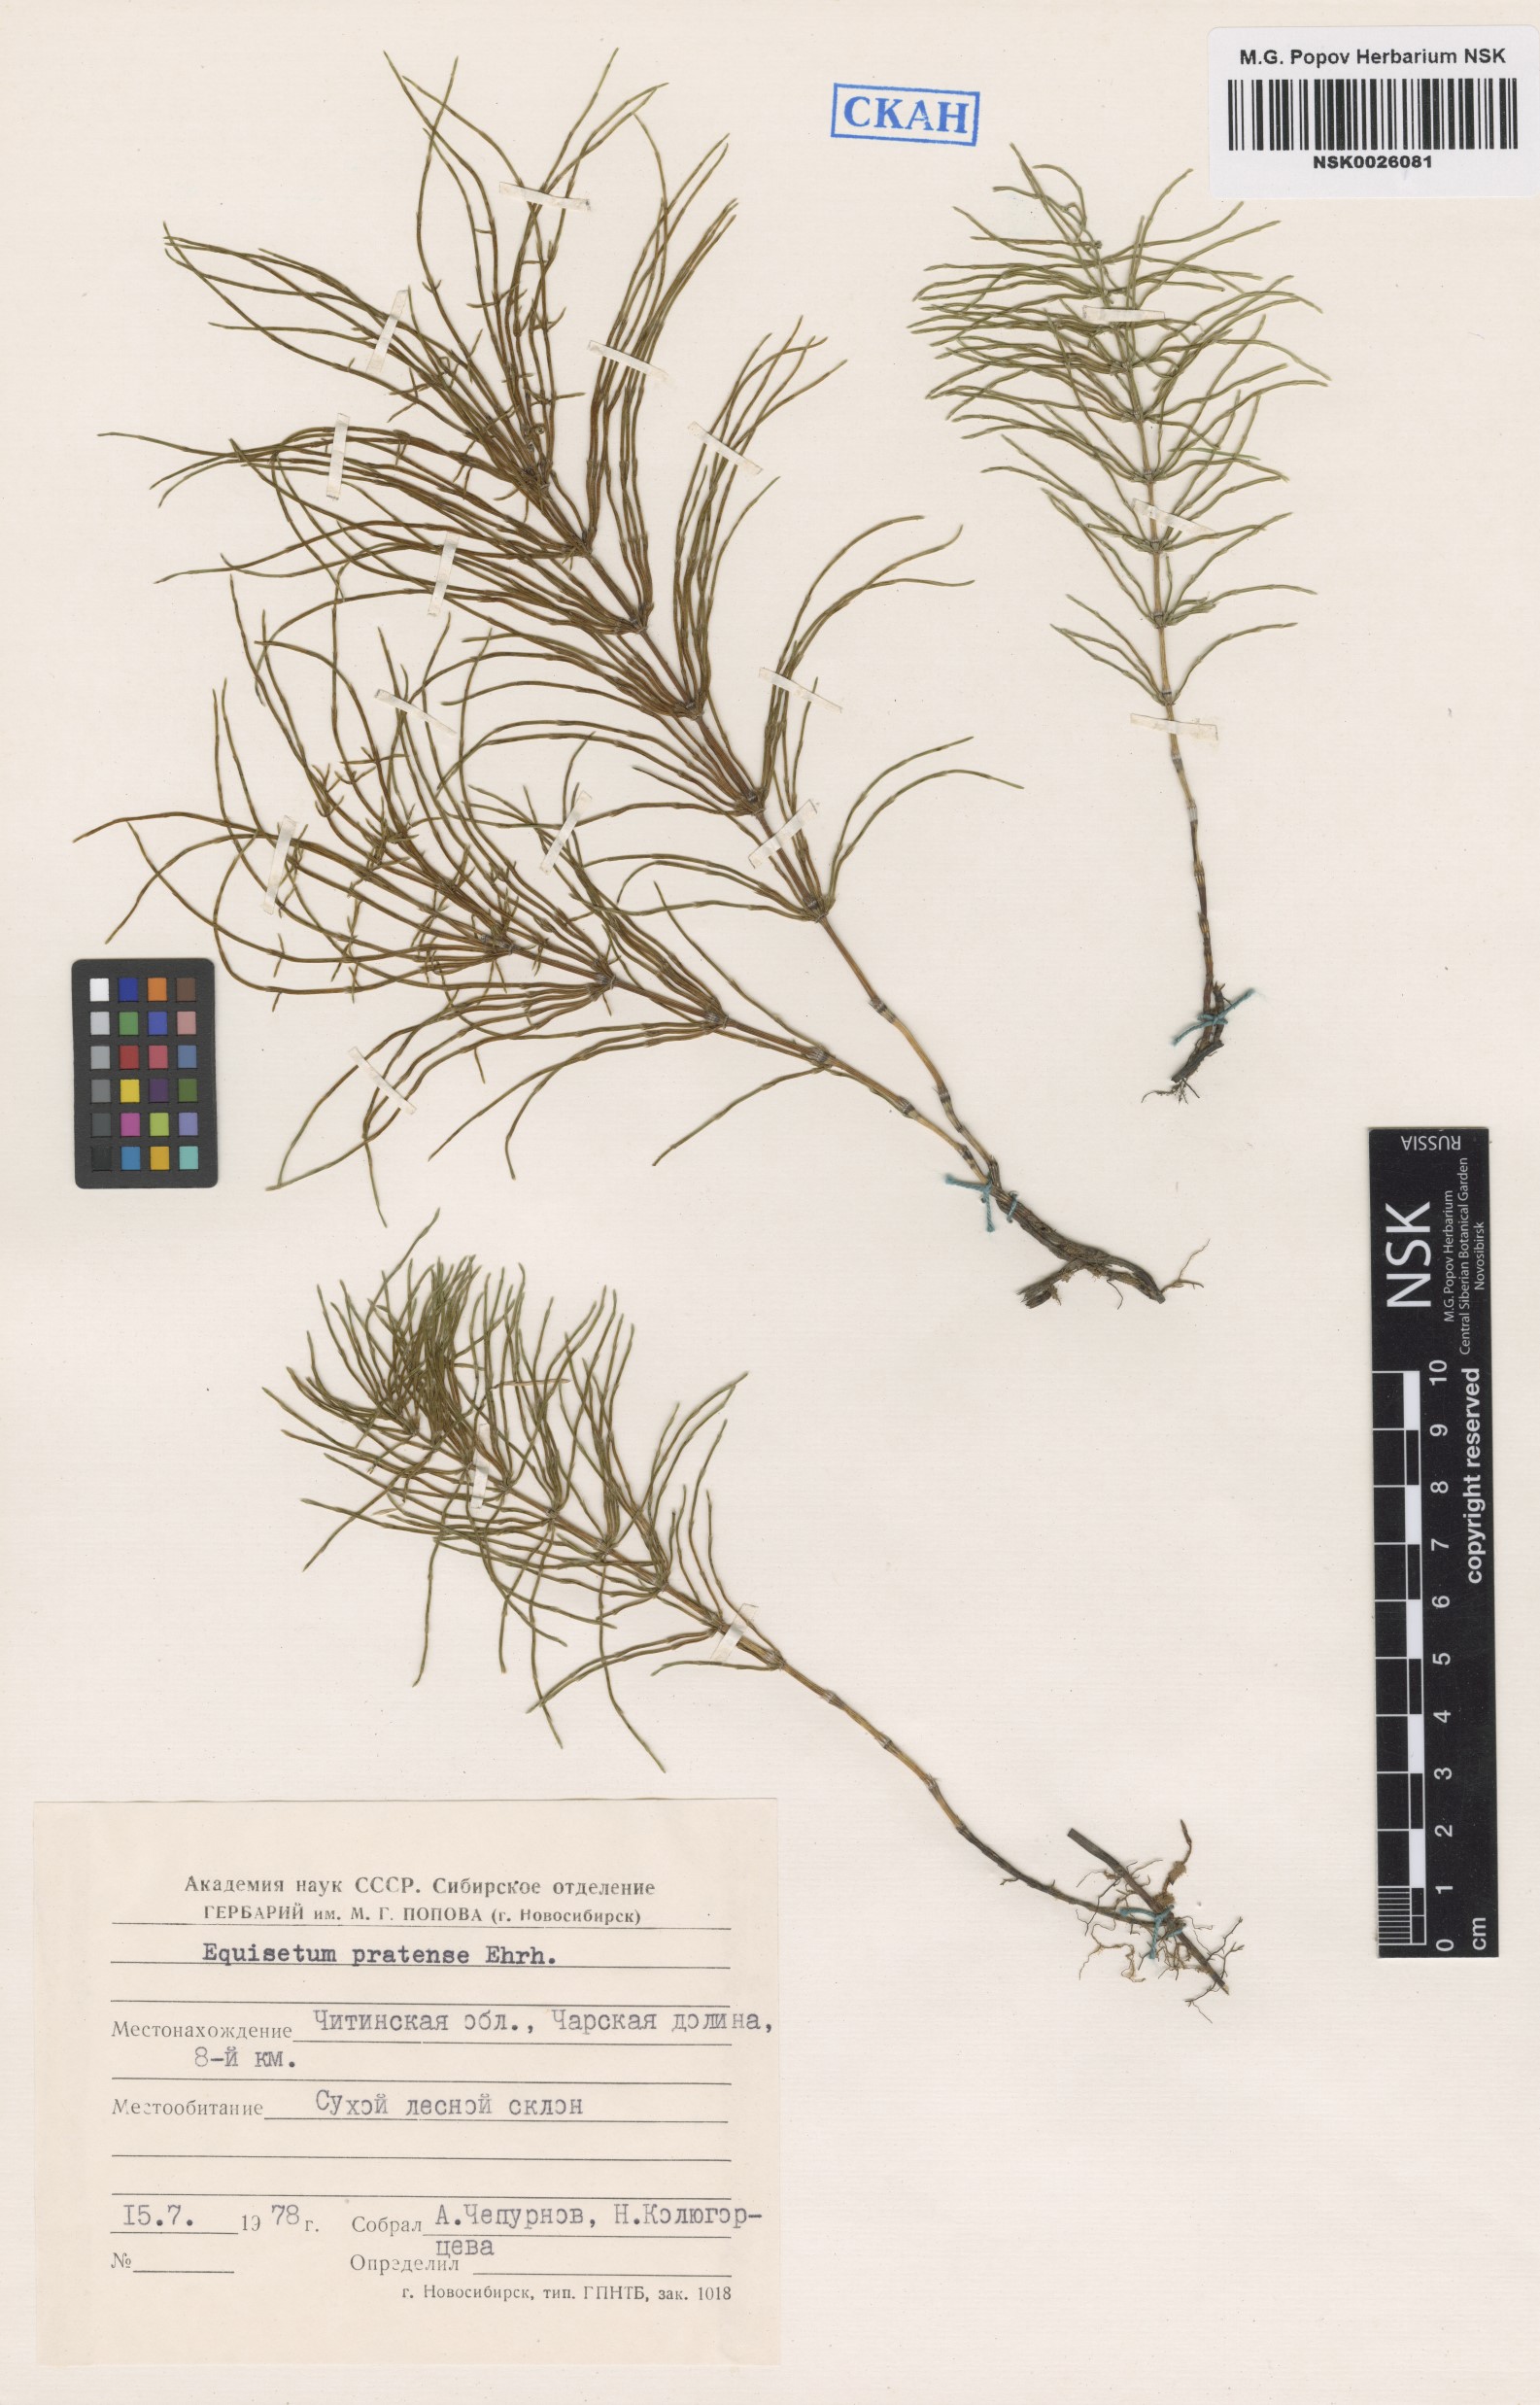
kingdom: Plantae
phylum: Tracheophyta
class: Polypodiopsida
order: Equisetales
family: Equisetaceae
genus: Equisetum
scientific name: Equisetum pratense
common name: Meadow horsetail
